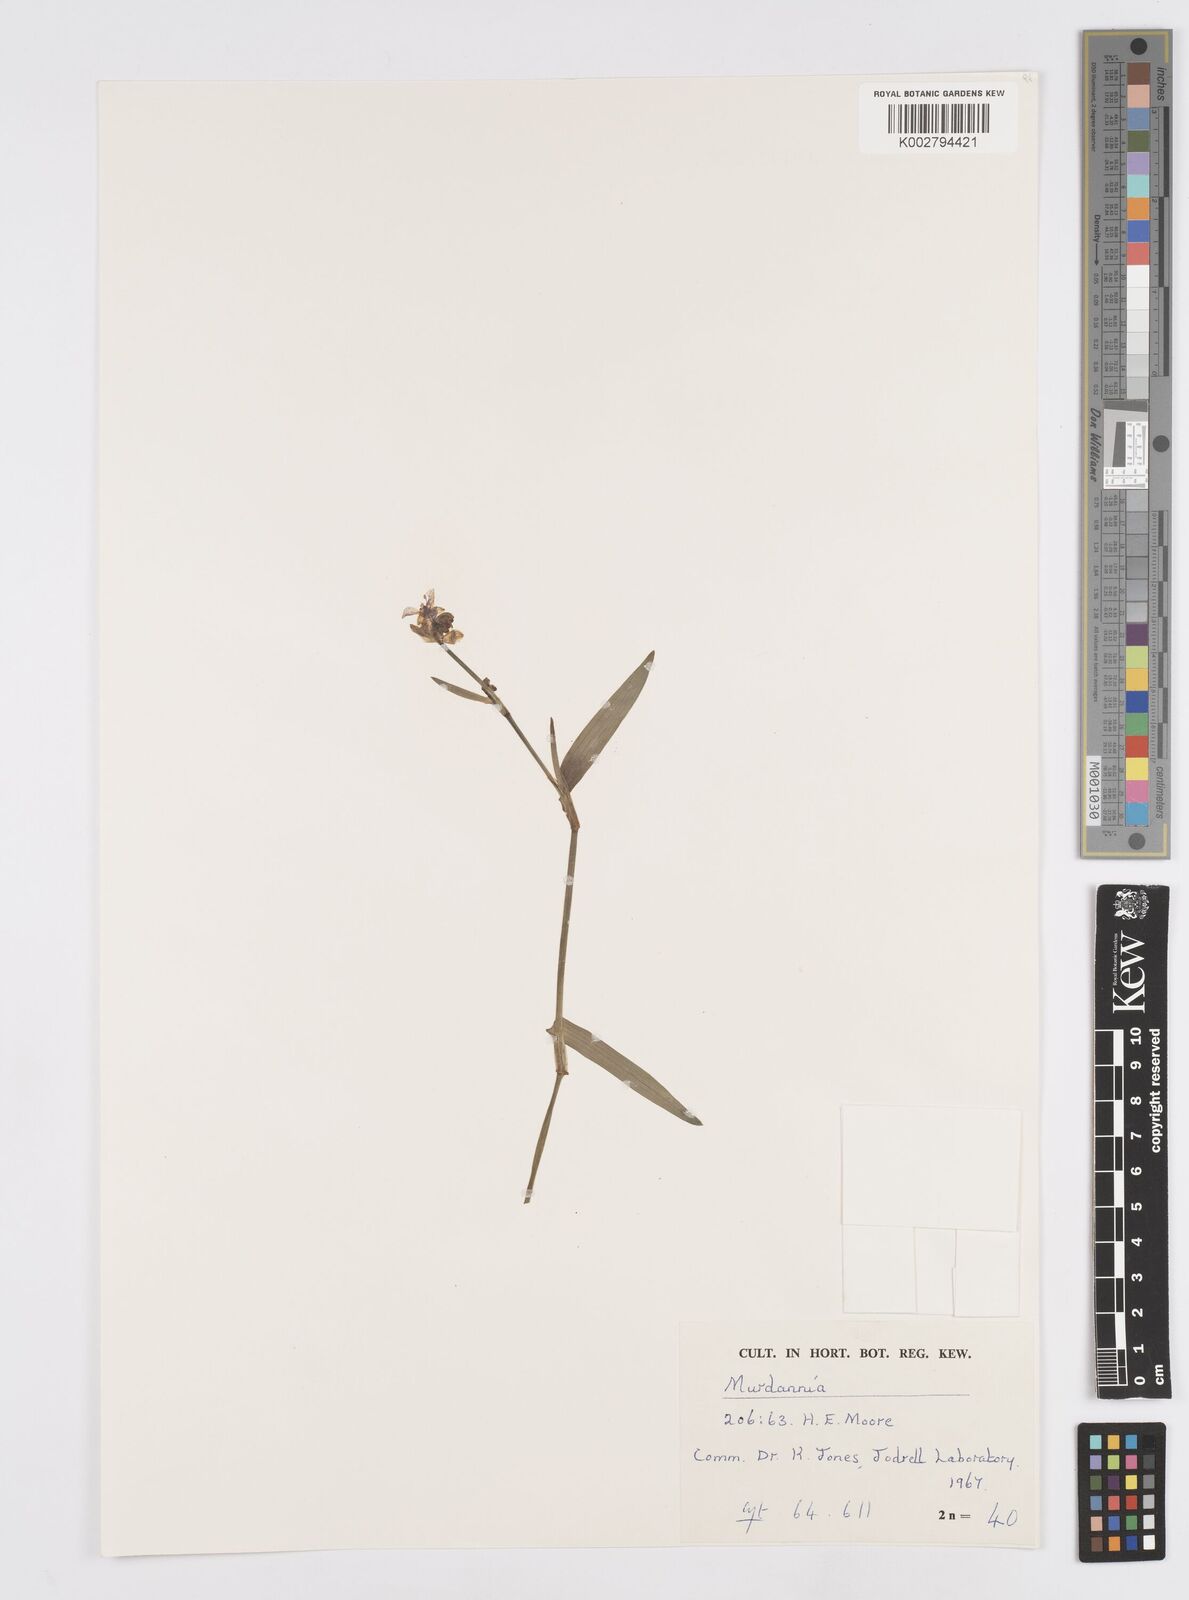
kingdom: Plantae
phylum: Tracheophyta
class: Liliopsida
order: Commelinales
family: Commelinaceae
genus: Murdannia
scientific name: Murdannia
